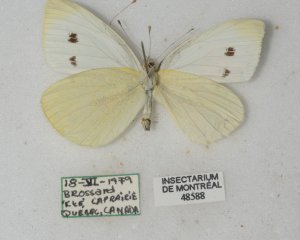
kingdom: Animalia
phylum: Arthropoda
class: Insecta
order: Lepidoptera
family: Pieridae
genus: Pieris
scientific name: Pieris rapae
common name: Cabbage White
